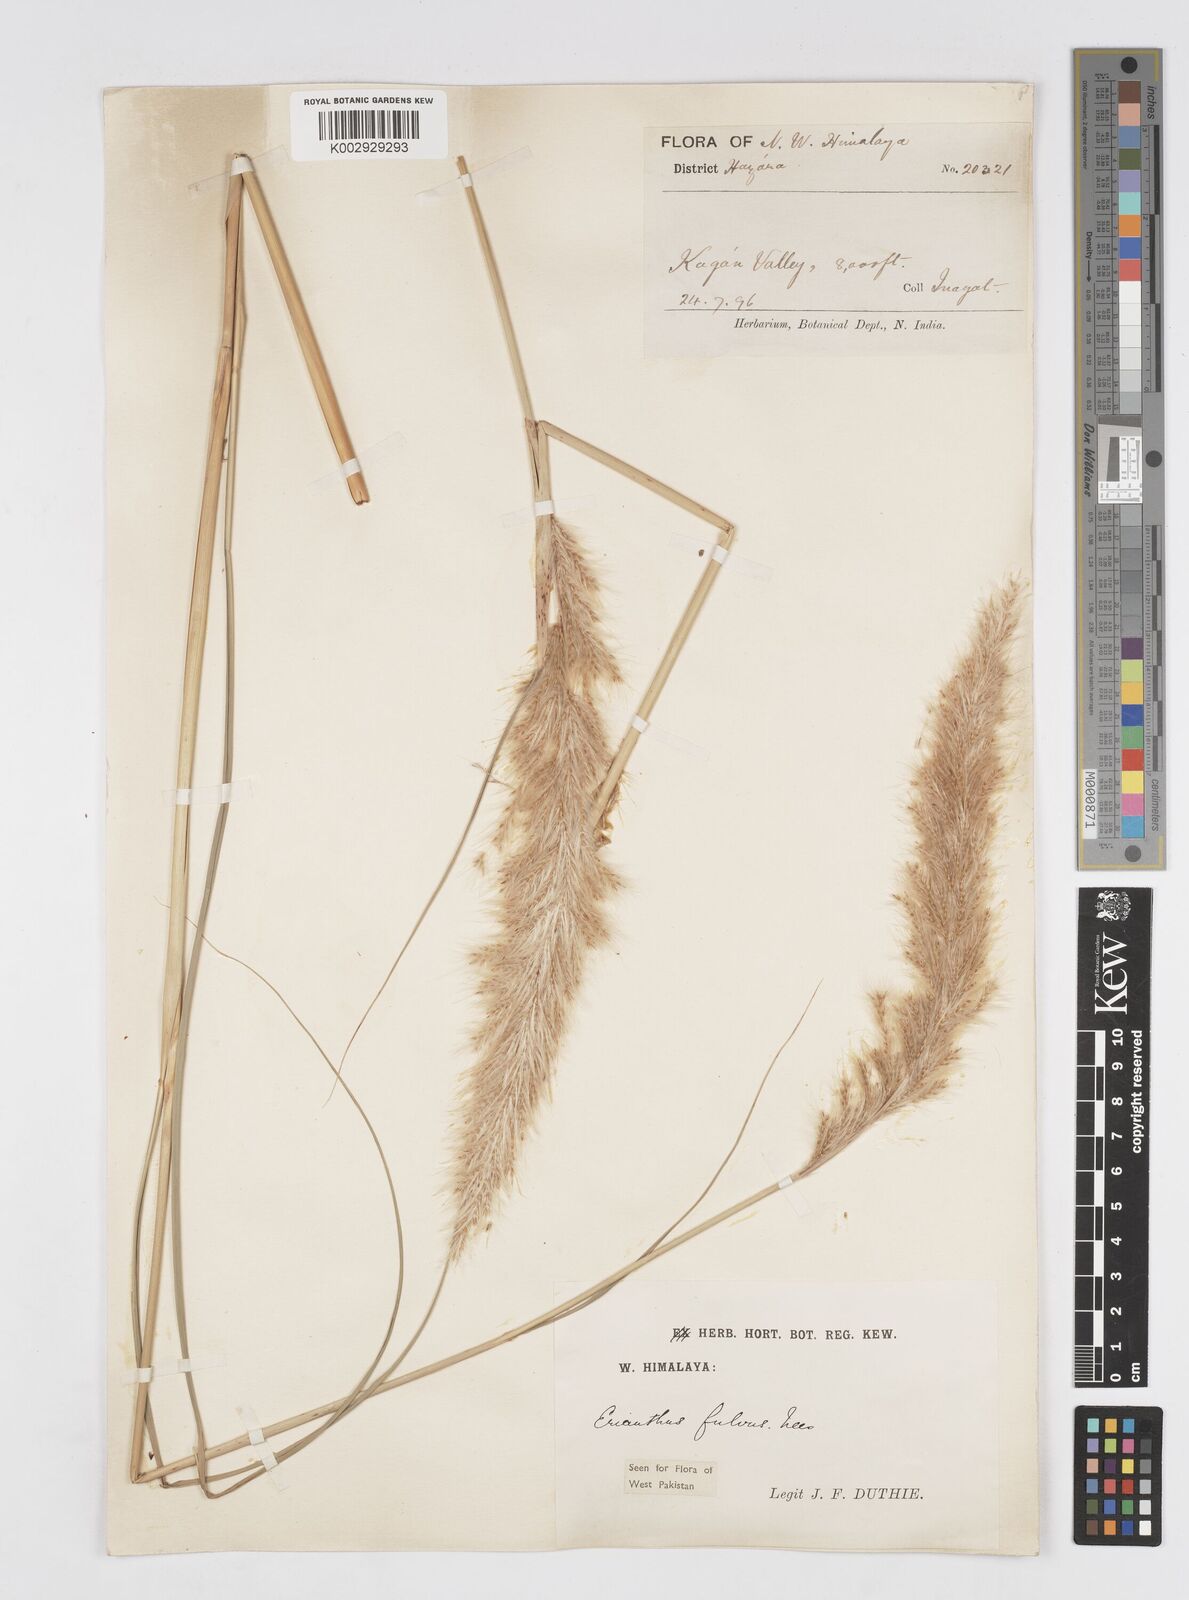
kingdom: Plantae
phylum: Tracheophyta
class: Liliopsida
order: Poales
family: Poaceae
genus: Tripidium
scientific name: Tripidium rufipilum
